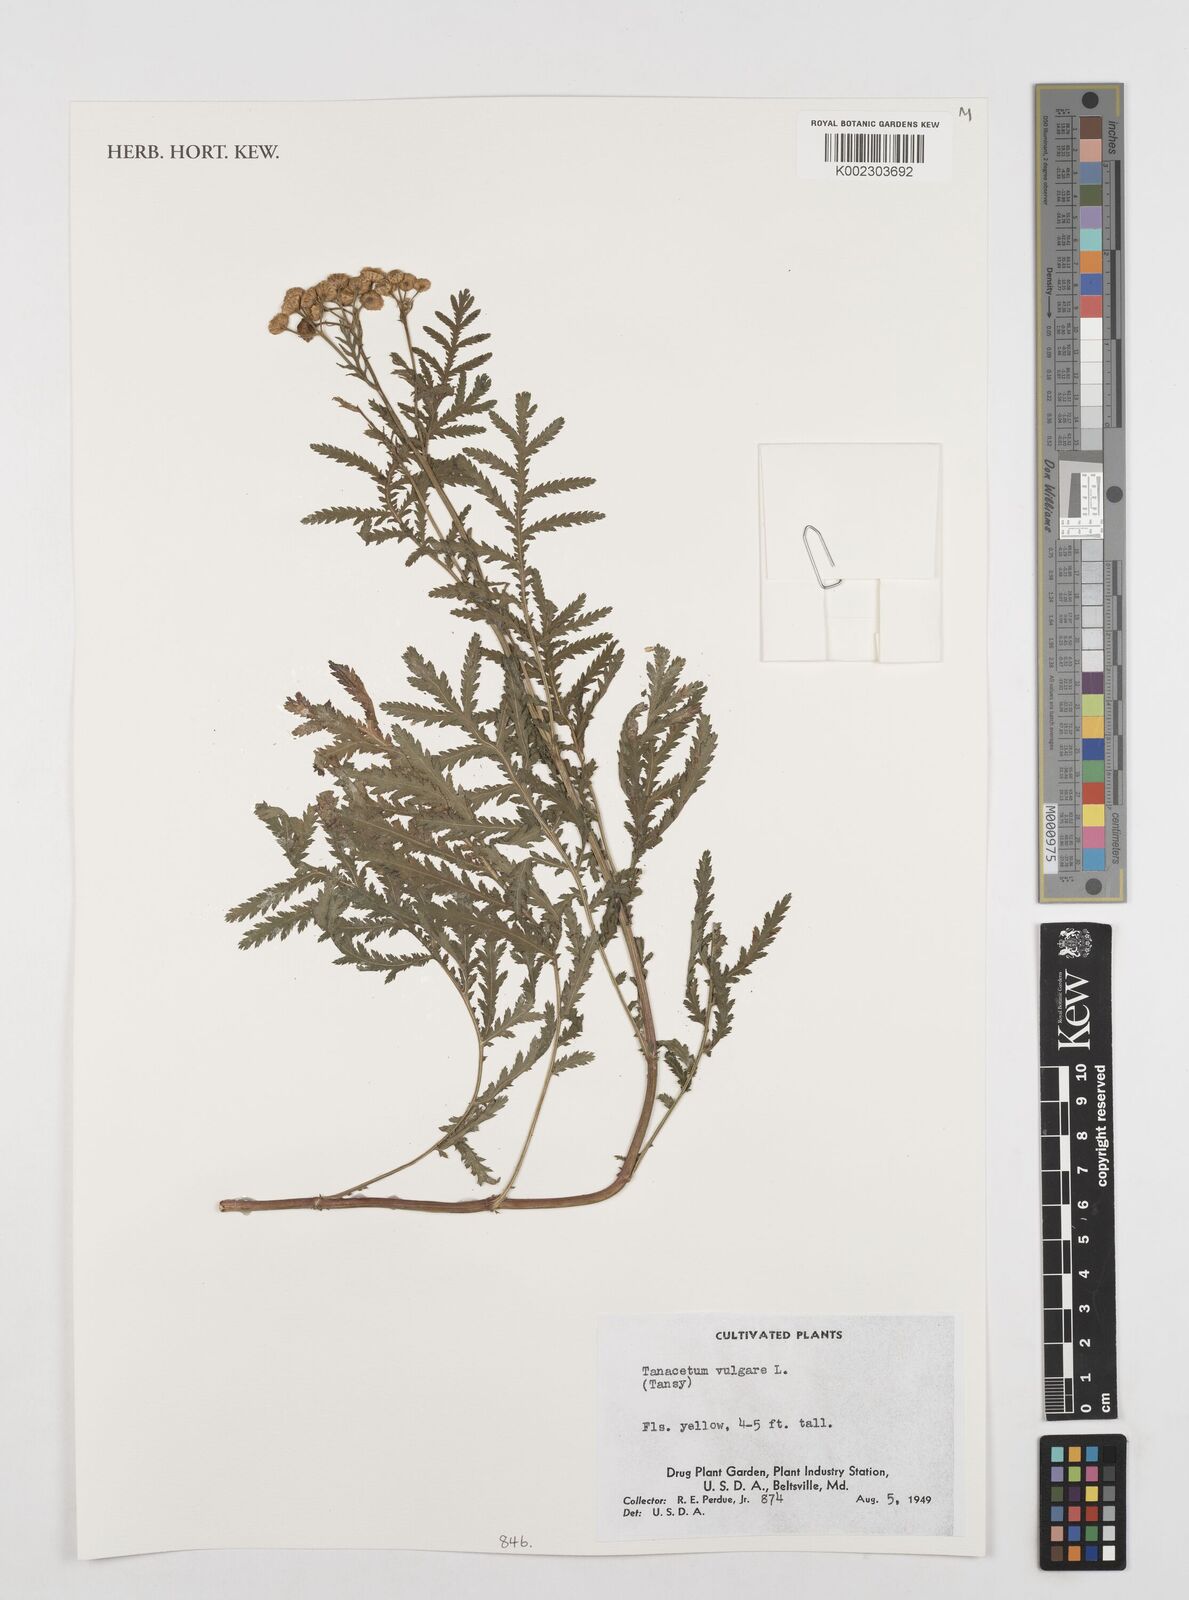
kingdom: Plantae
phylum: Tracheophyta
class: Magnoliopsida
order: Asterales
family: Asteraceae
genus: Tanacetum
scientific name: Tanacetum vulgare
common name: Common tansy
